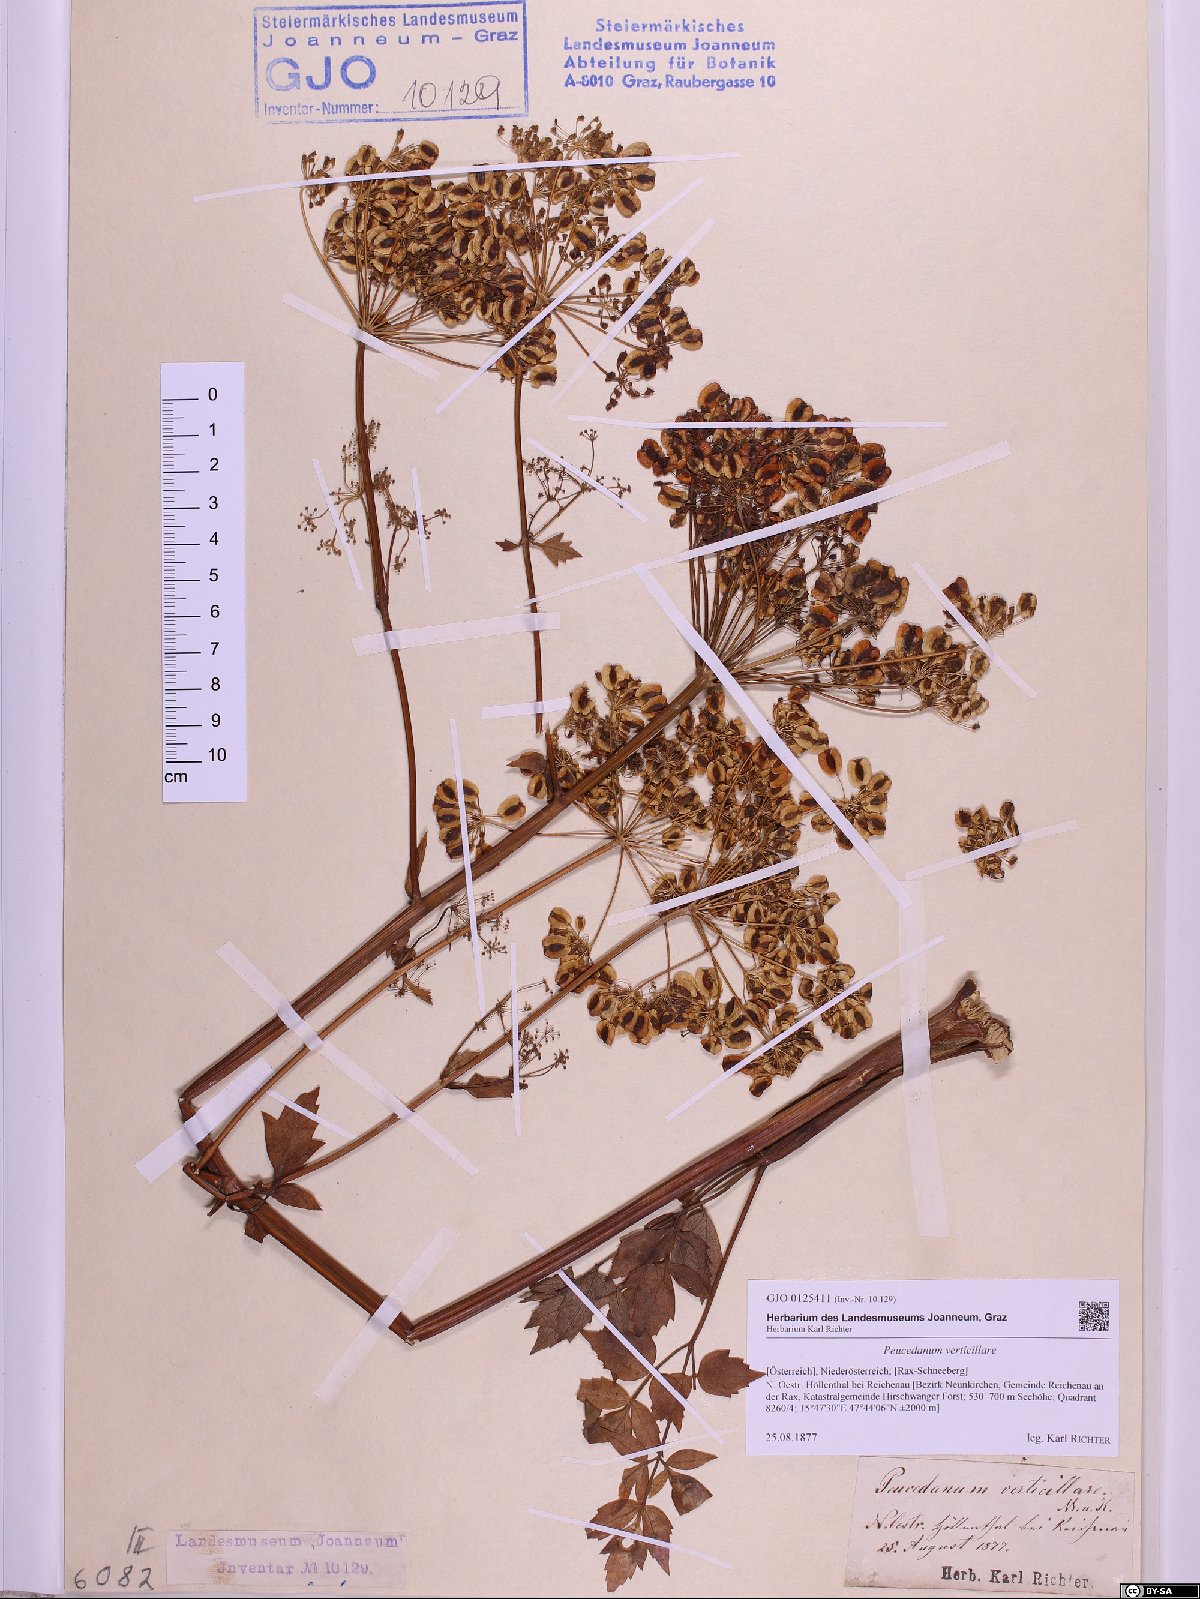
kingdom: Plantae
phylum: Tracheophyta
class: Magnoliopsida
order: Apiales
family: Apiaceae
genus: Tommasinia
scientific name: Tommasinia altissima
